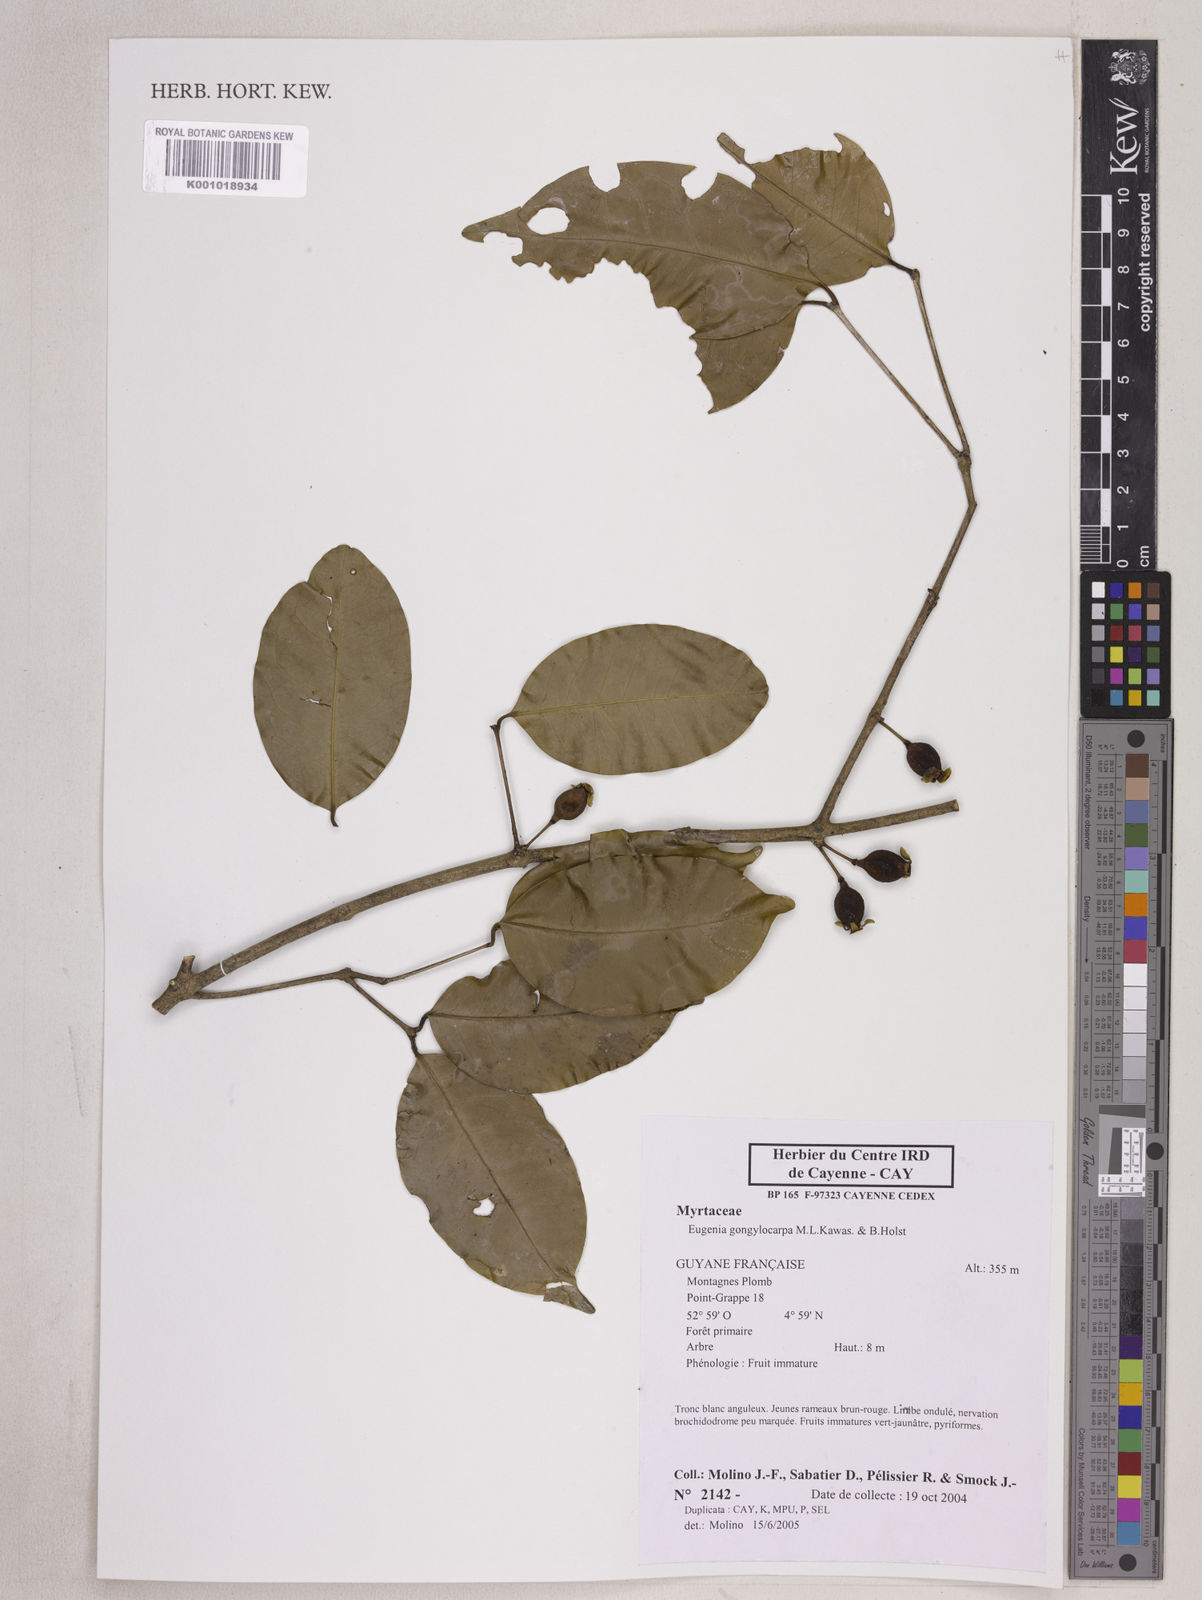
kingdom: Plantae
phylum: Tracheophyta
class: Magnoliopsida
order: Myrtales
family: Myrtaceae
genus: Eugenia
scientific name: Eugenia gongylocarpa
